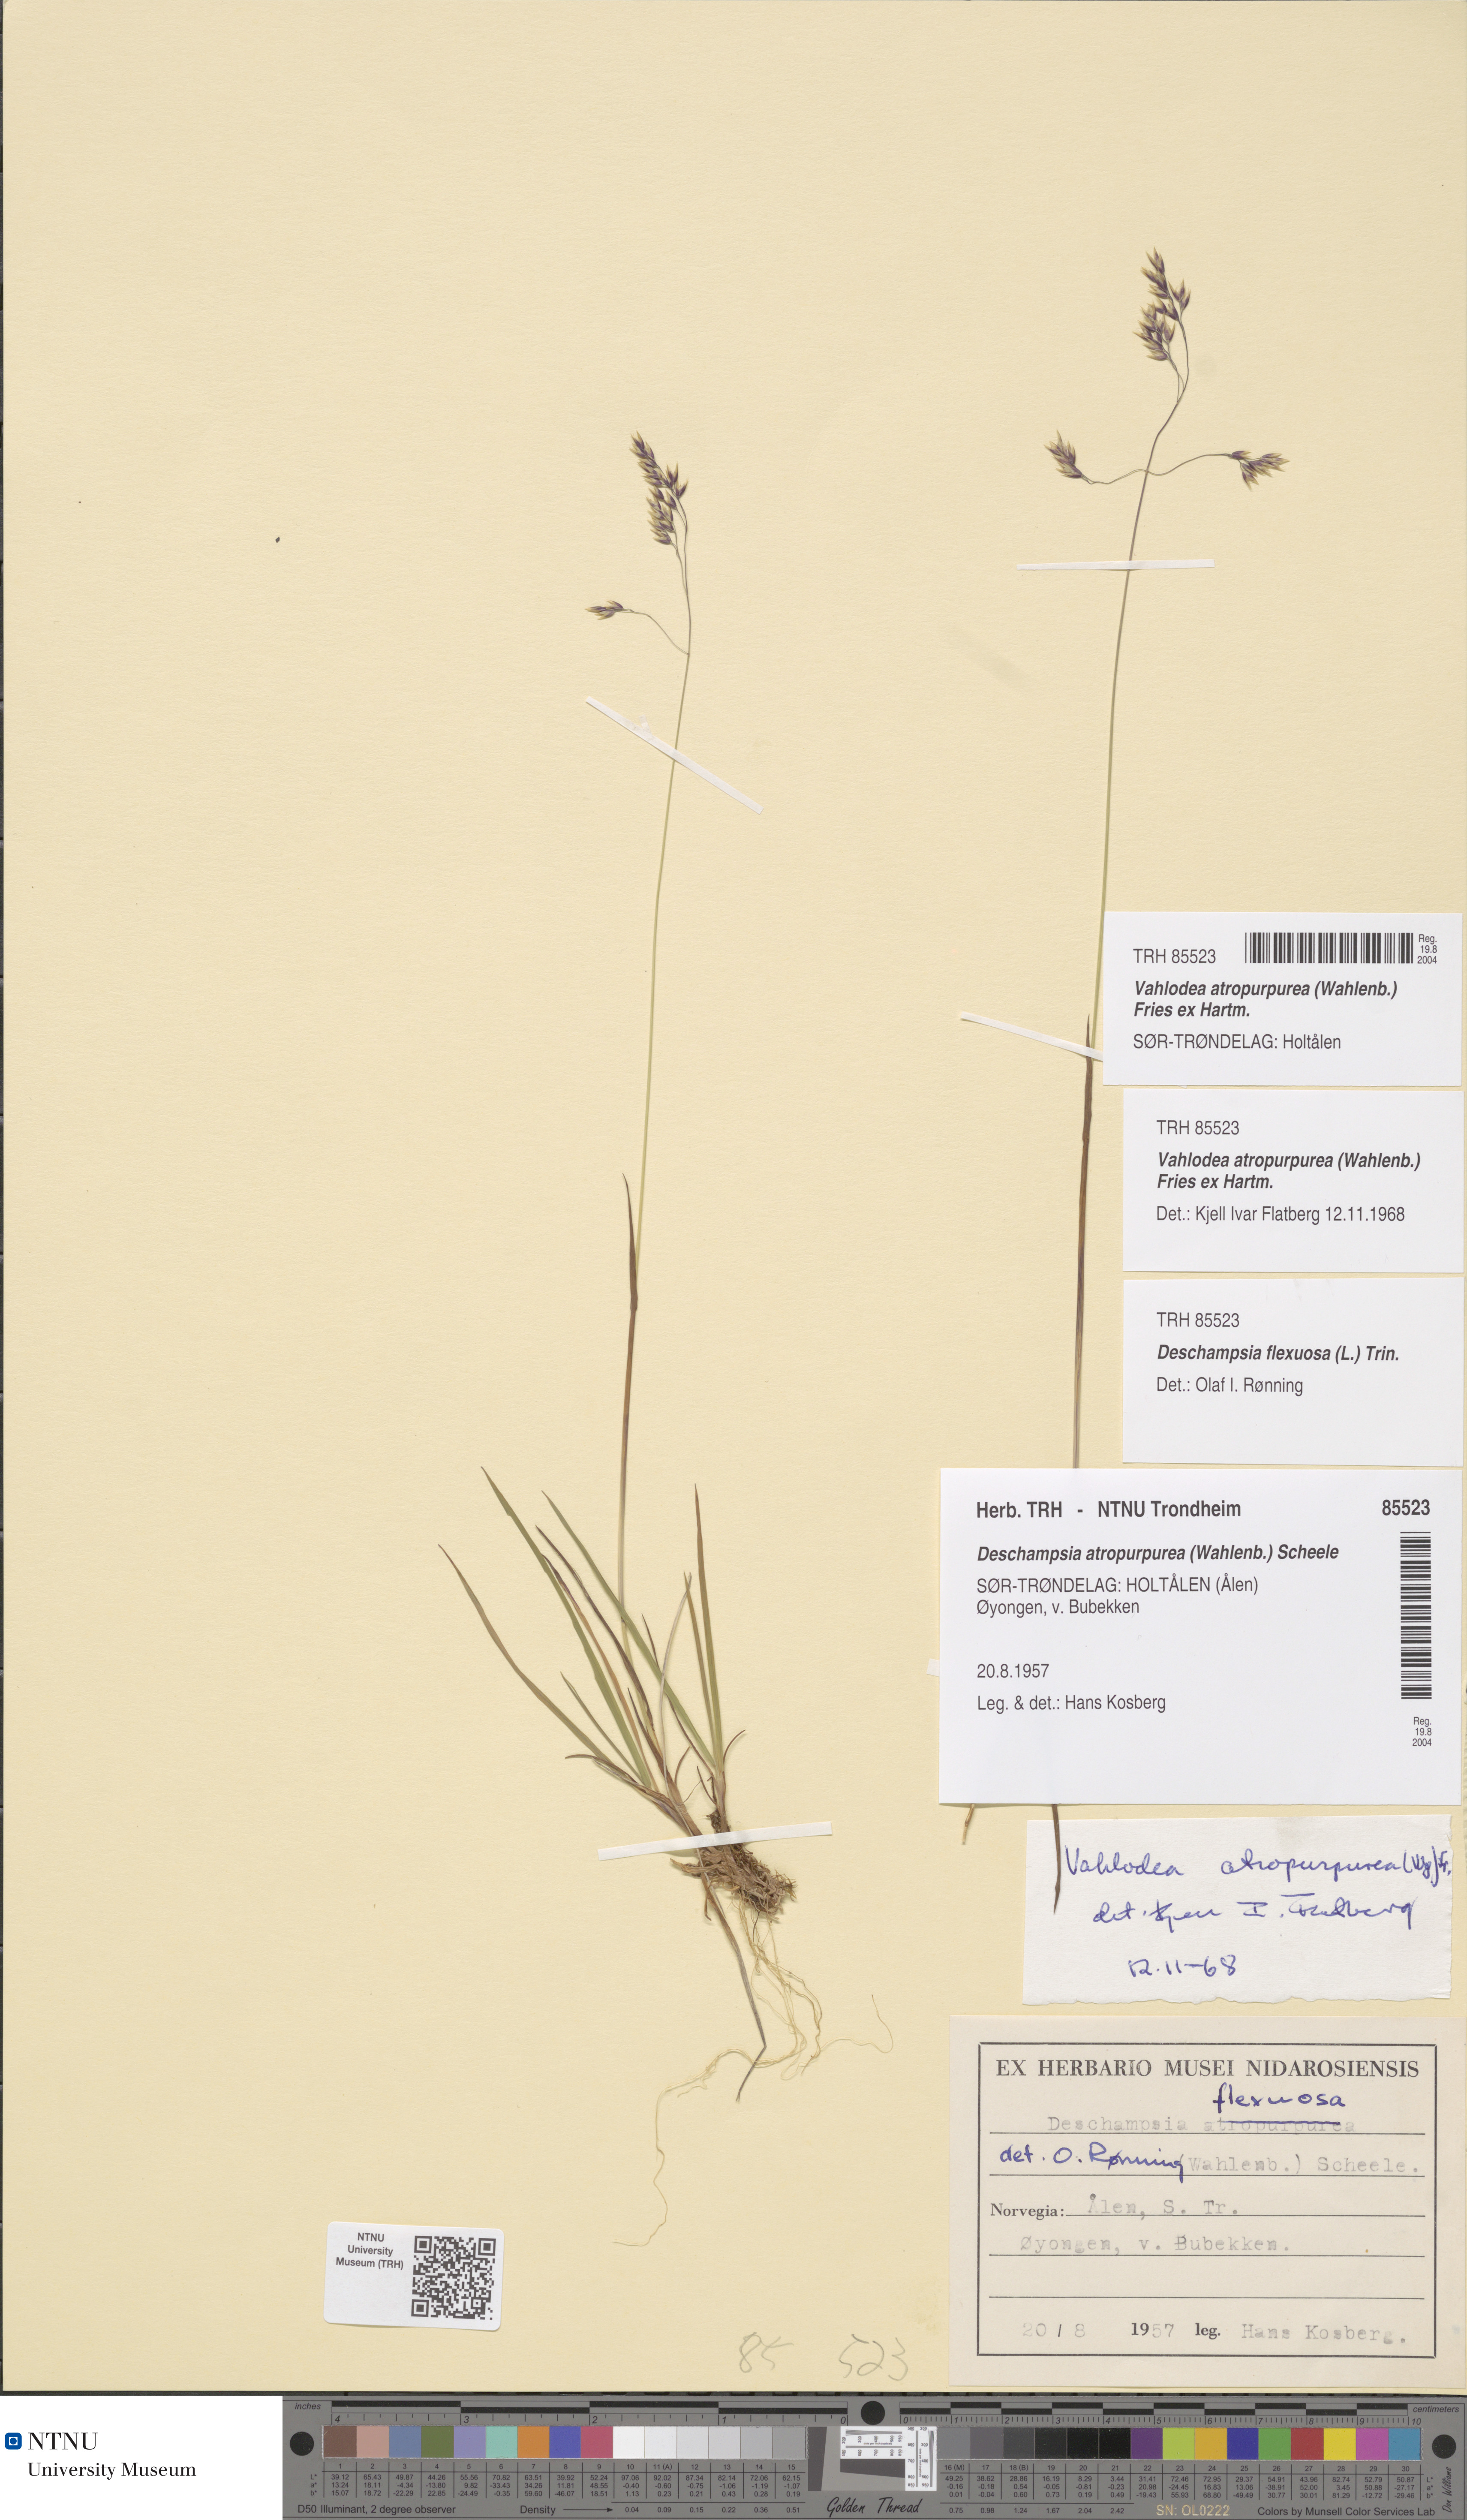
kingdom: Plantae
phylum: Tracheophyta
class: Liliopsida
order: Poales
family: Poaceae
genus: Vahlodea
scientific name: Vahlodea atropurpurea
